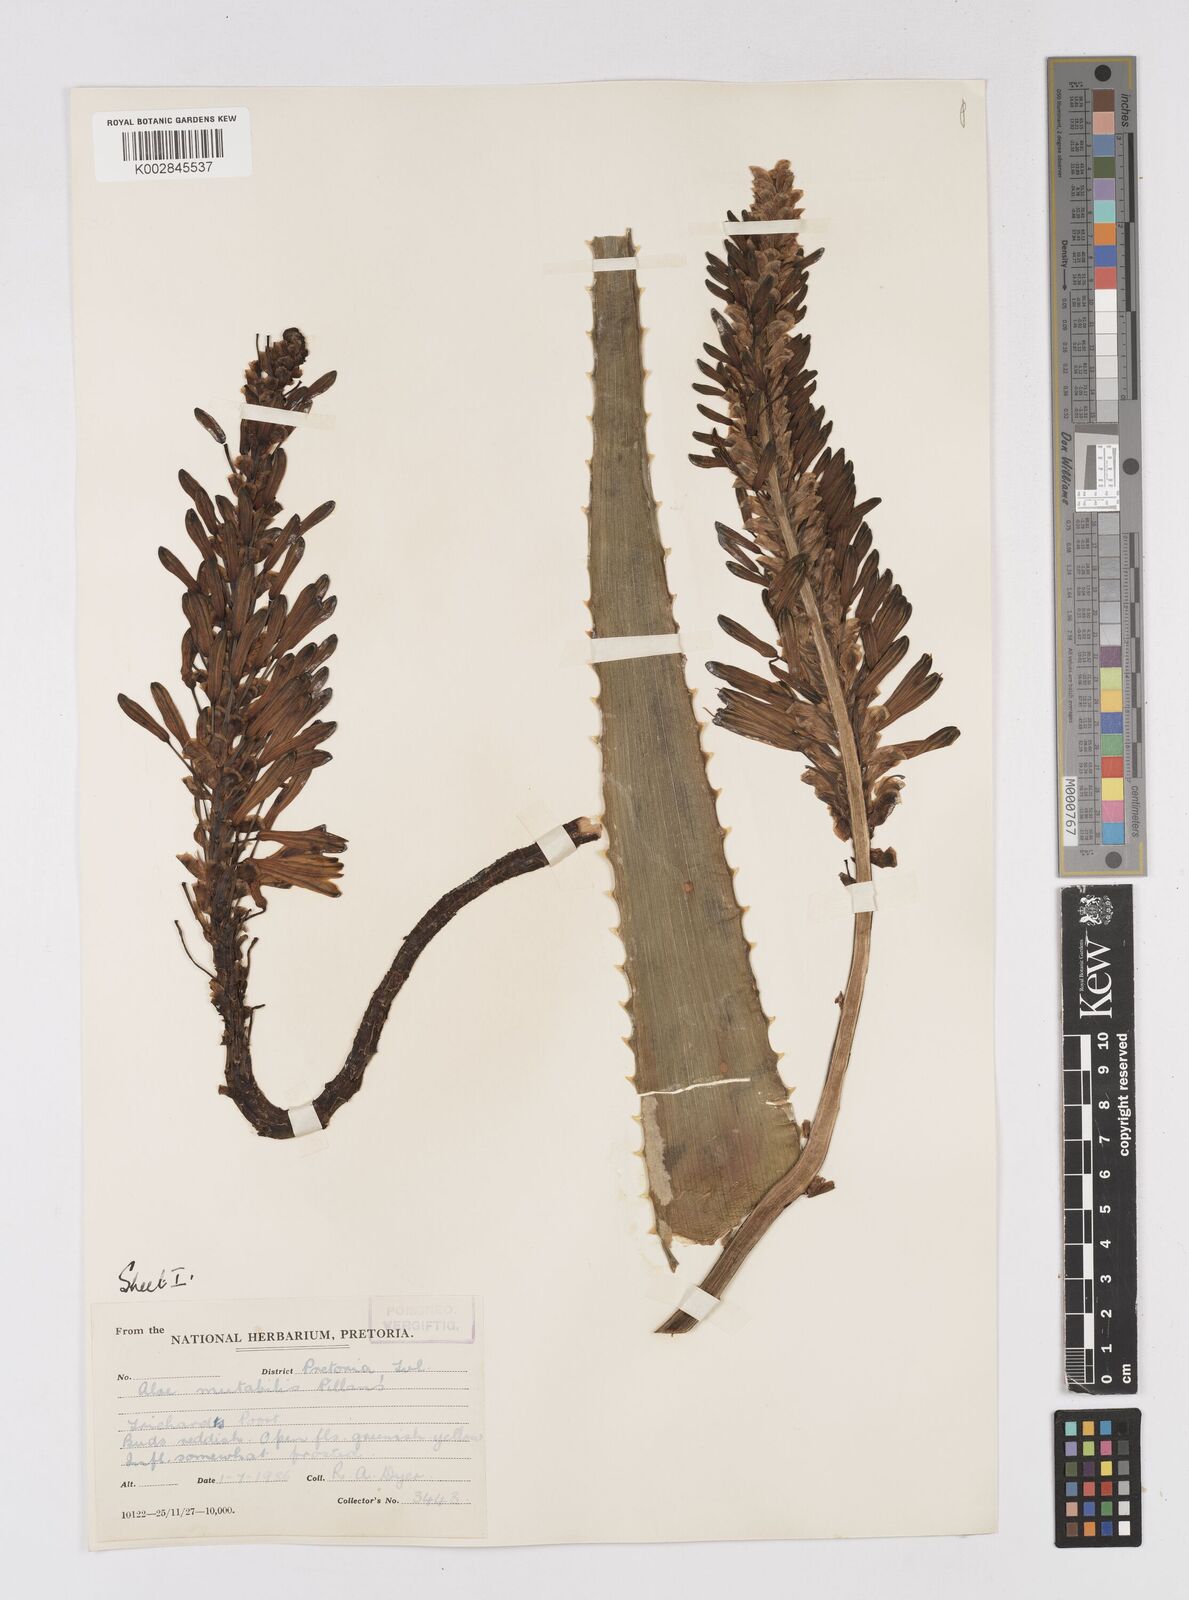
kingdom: Plantae
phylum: Tracheophyta
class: Liliopsida
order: Asparagales
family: Asphodelaceae
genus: Aloe
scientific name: Aloe mutabilis
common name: Blue krantz aloe
